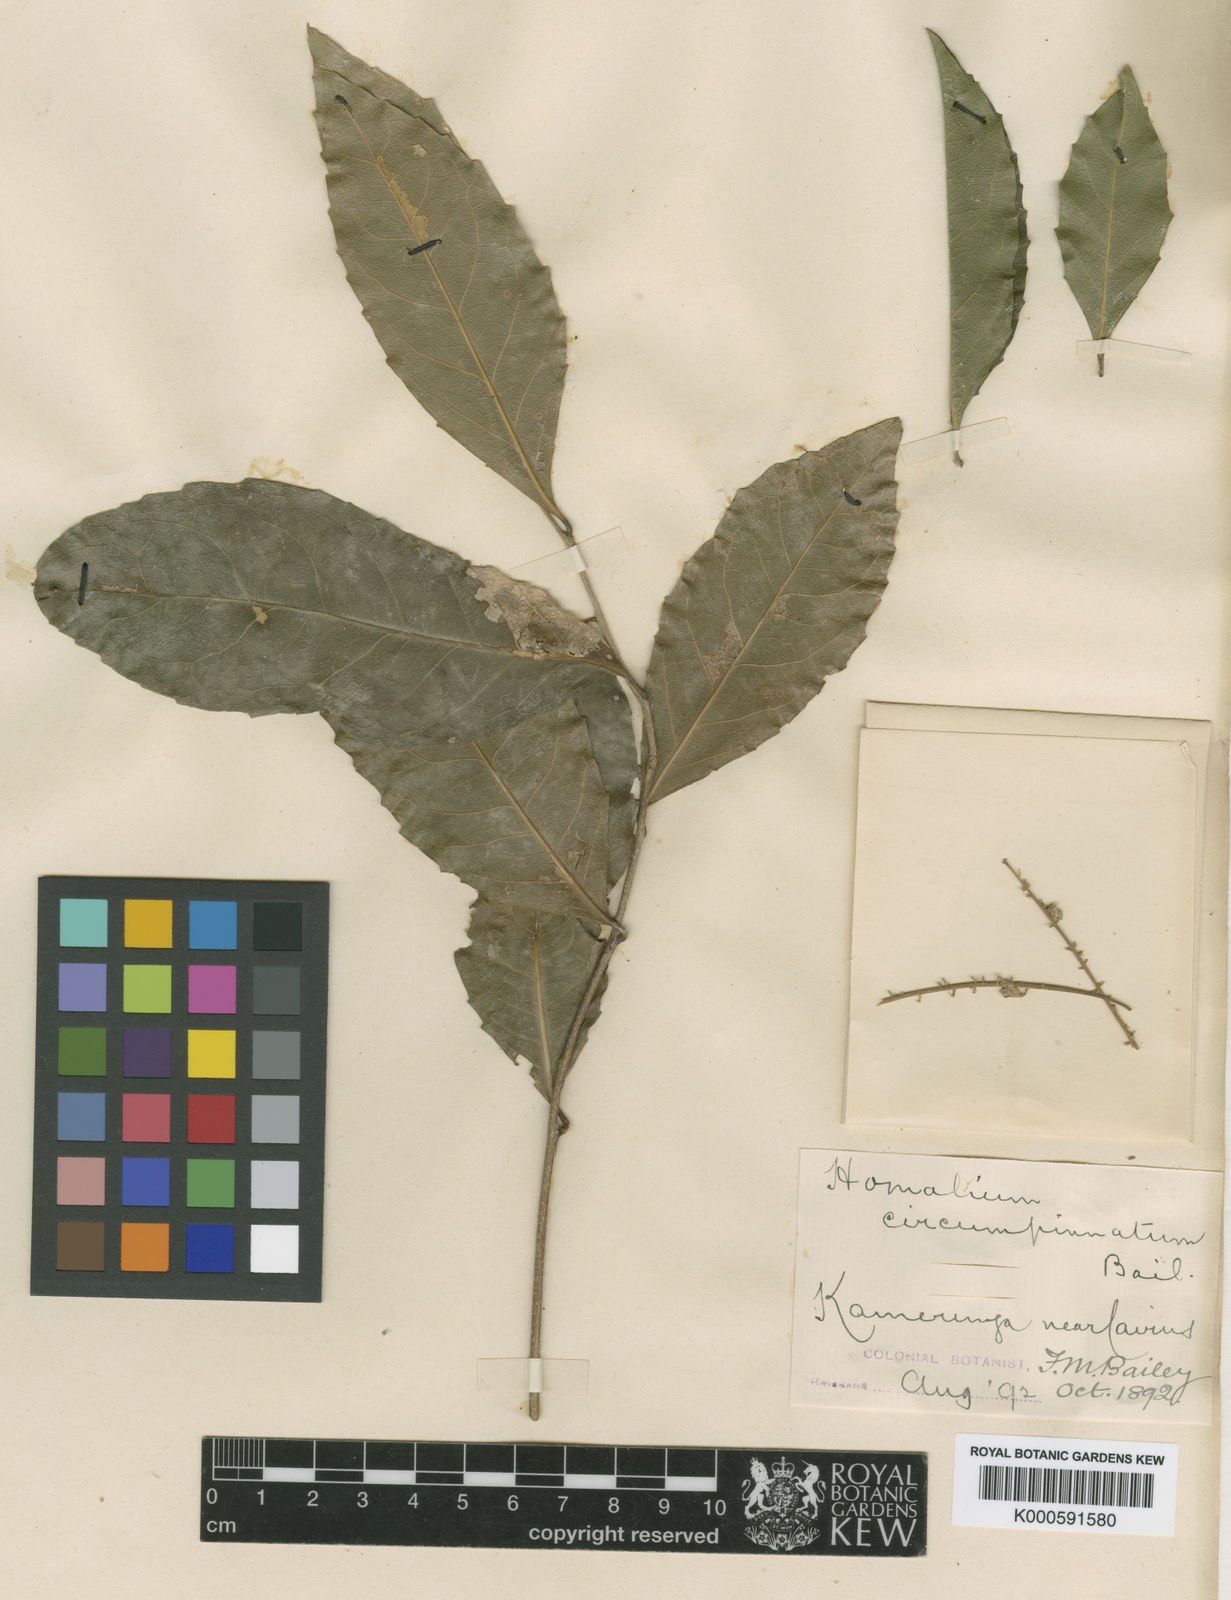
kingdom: Plantae
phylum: Tracheophyta
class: Magnoliopsida
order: Malpighiales
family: Salicaceae
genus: Homalium
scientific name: Homalium circumpinnatum
